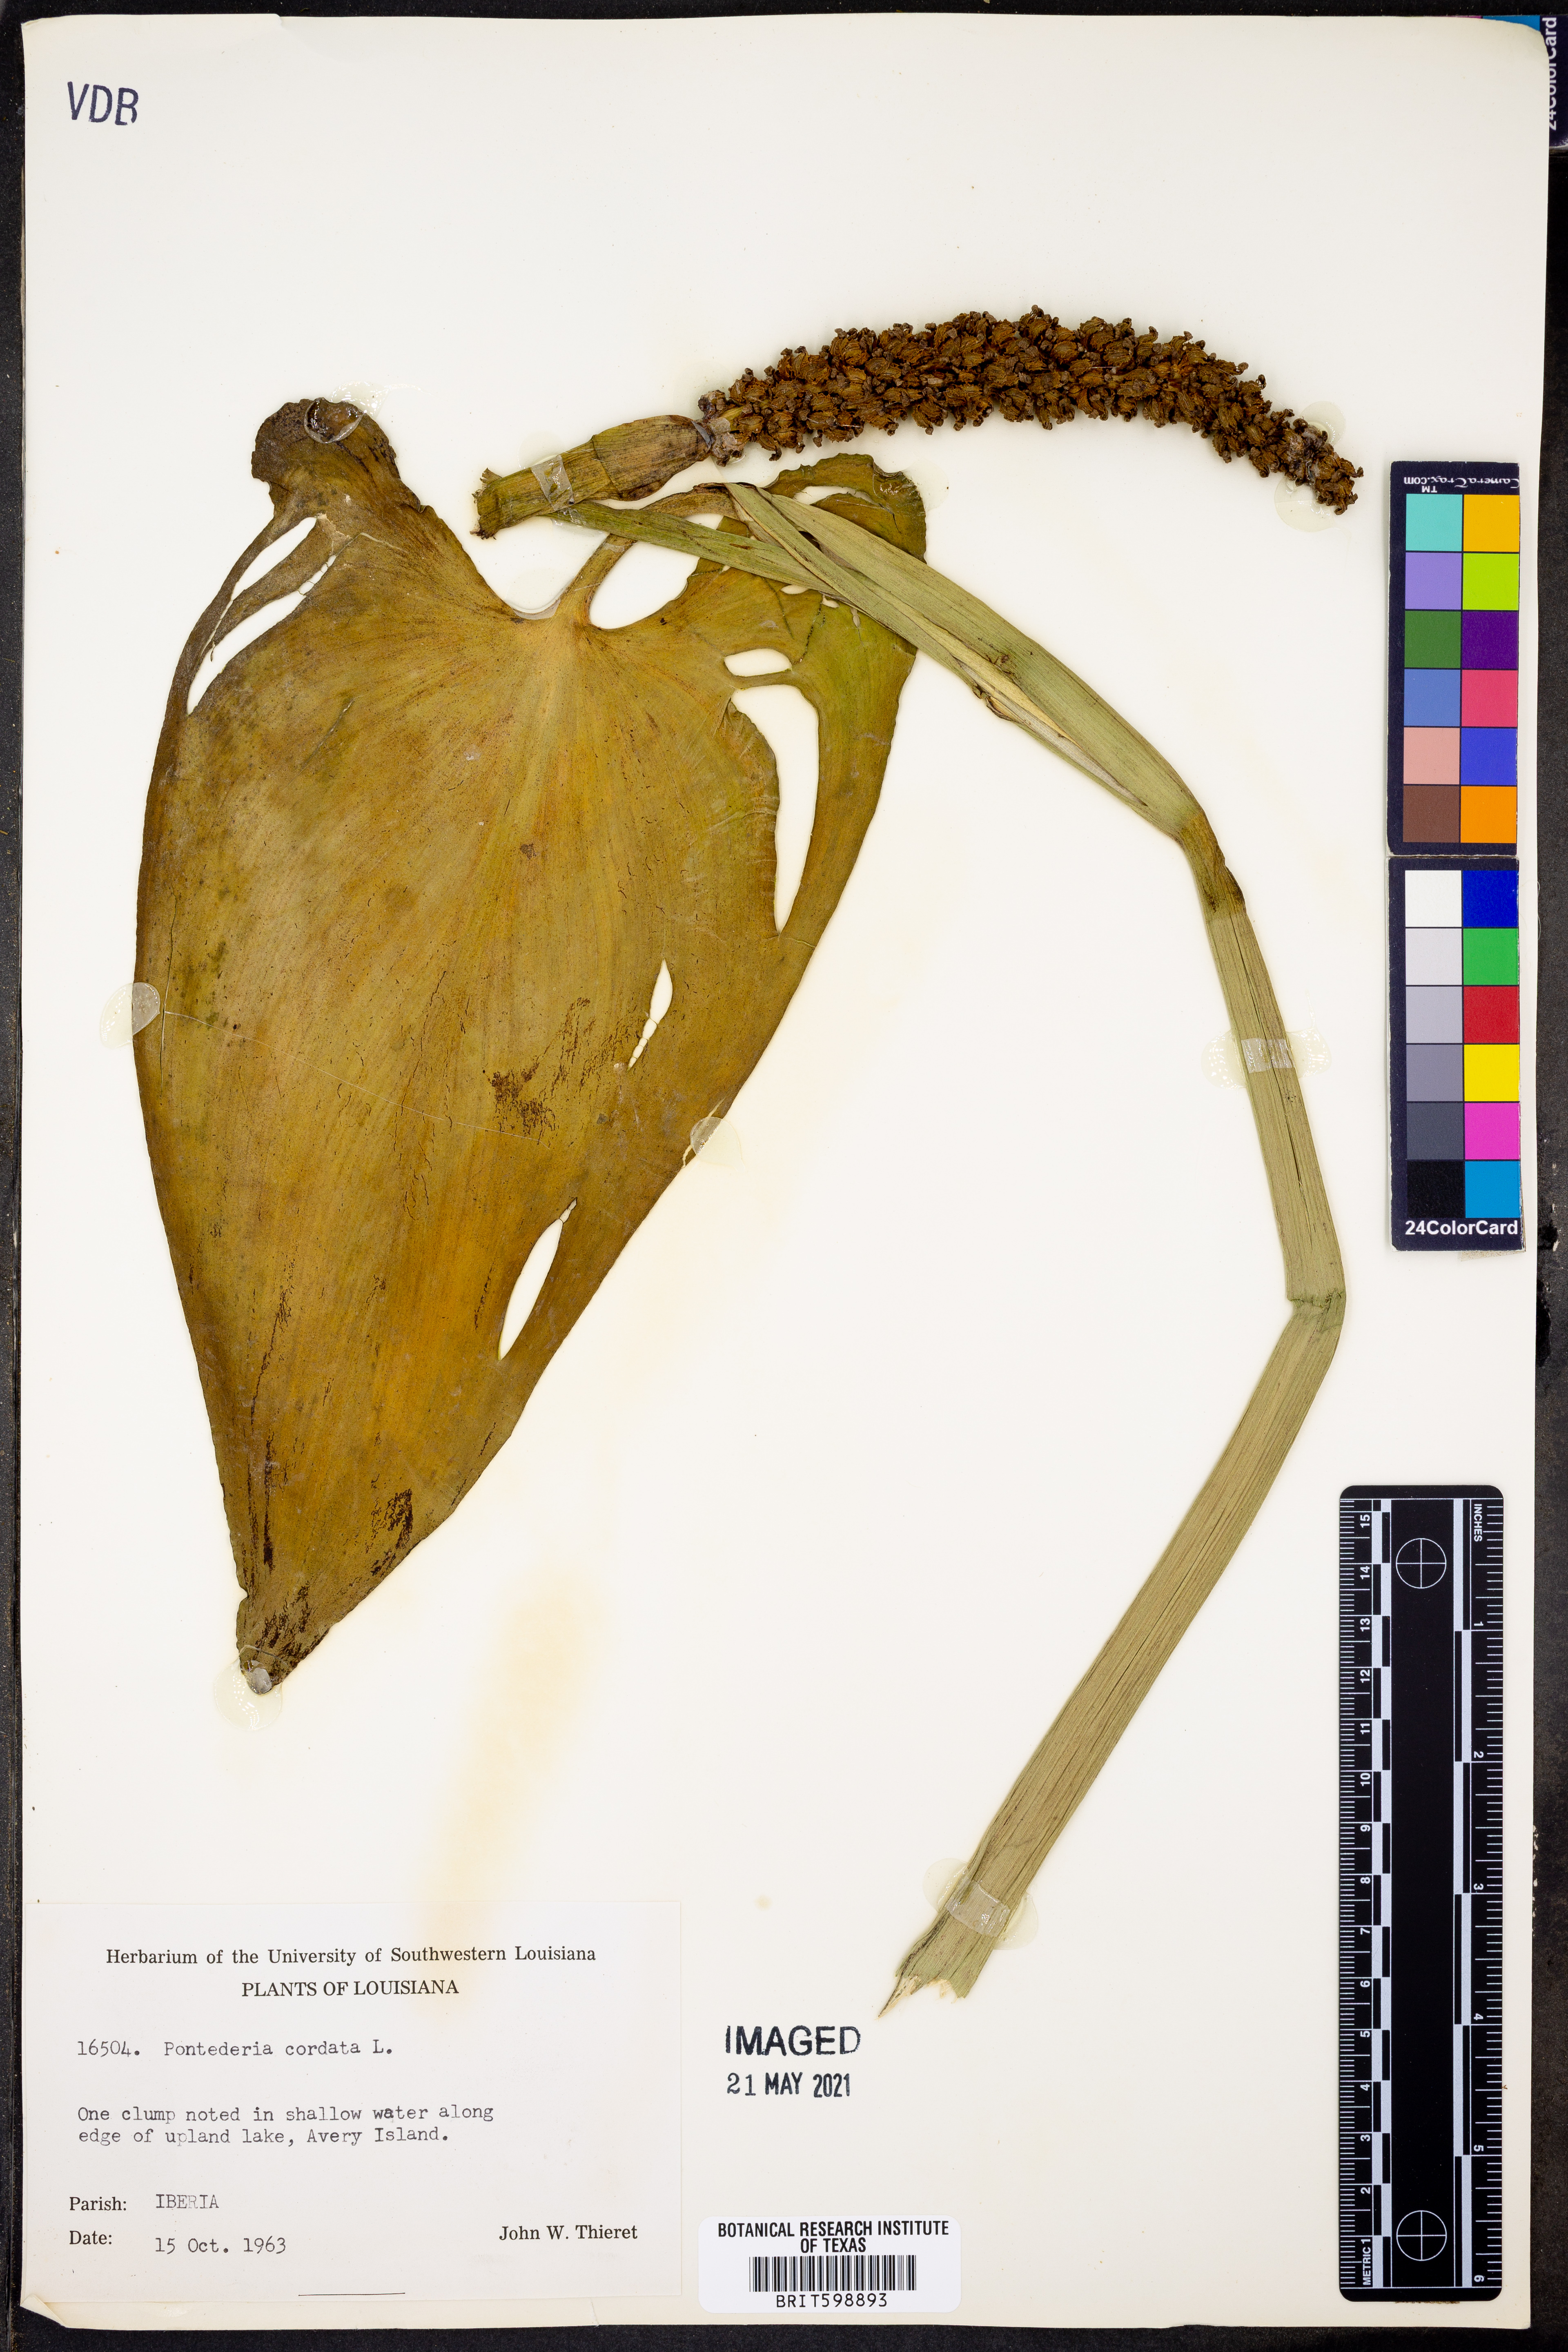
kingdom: Plantae
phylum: Tracheophyta
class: Liliopsida
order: Commelinales
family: Pontederiaceae
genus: Pontederia
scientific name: Pontederia cordata
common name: Pickerelweed
